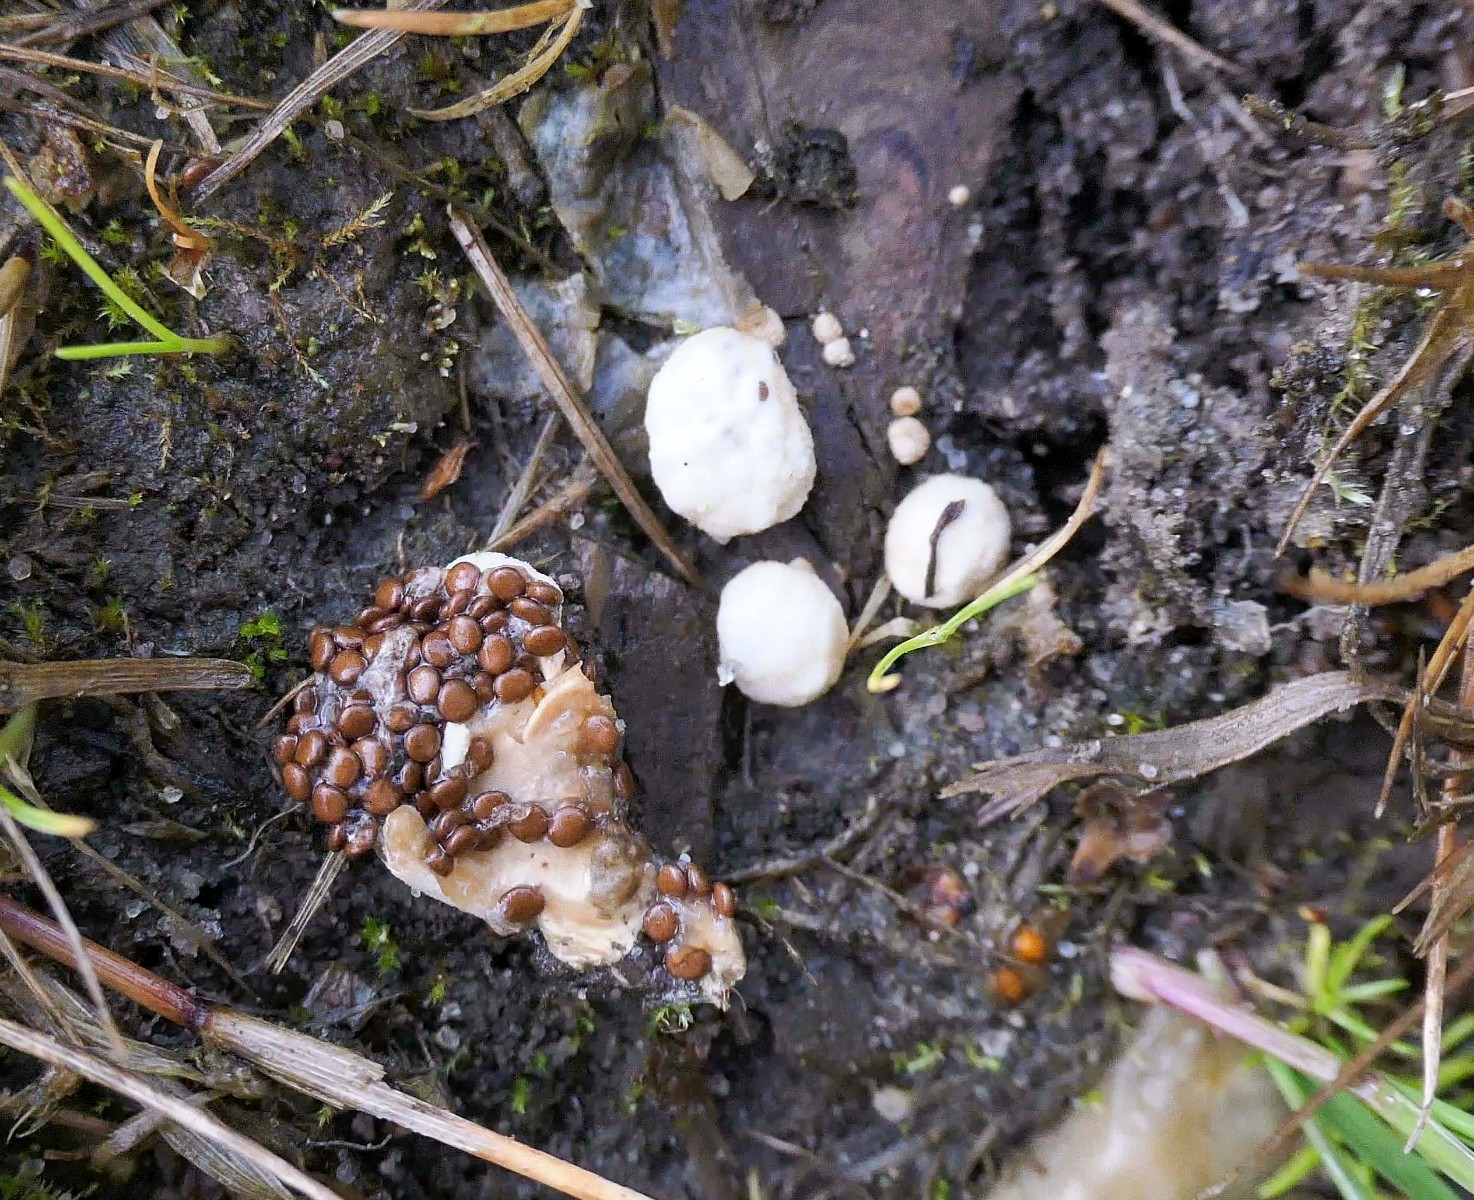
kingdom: Fungi
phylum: Basidiomycota
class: Agaricomycetes
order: Agaricales
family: Agaricaceae
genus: Nidularia
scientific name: Nidularia deformis
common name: pudesvamp
